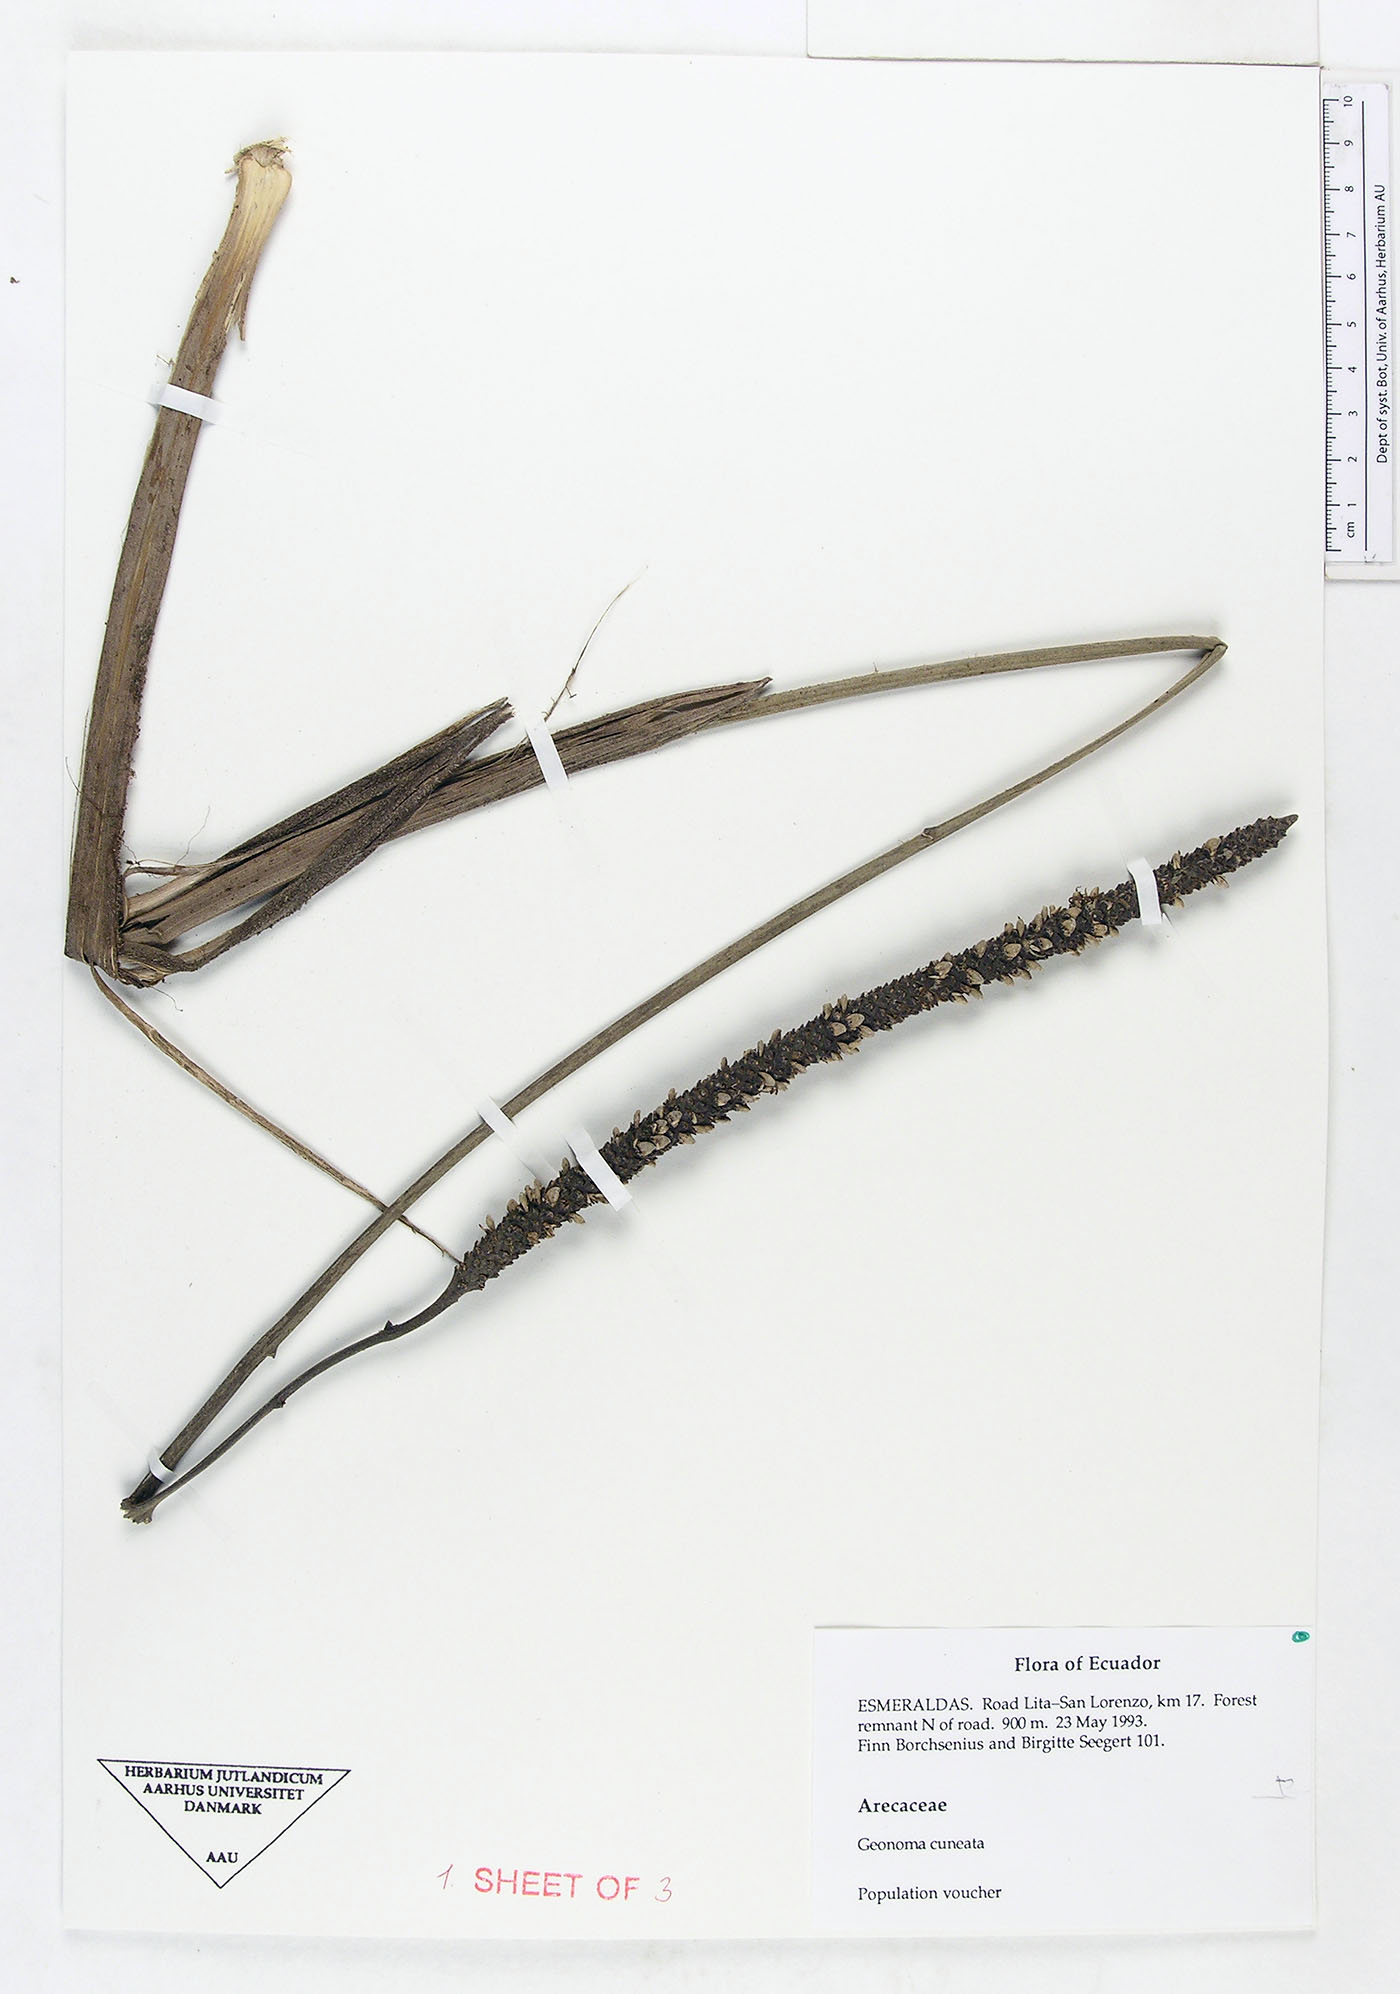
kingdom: Plantae
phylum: Tracheophyta
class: Liliopsida
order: Arecales
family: Arecaceae
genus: Geonoma
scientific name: Geonoma cuneata
